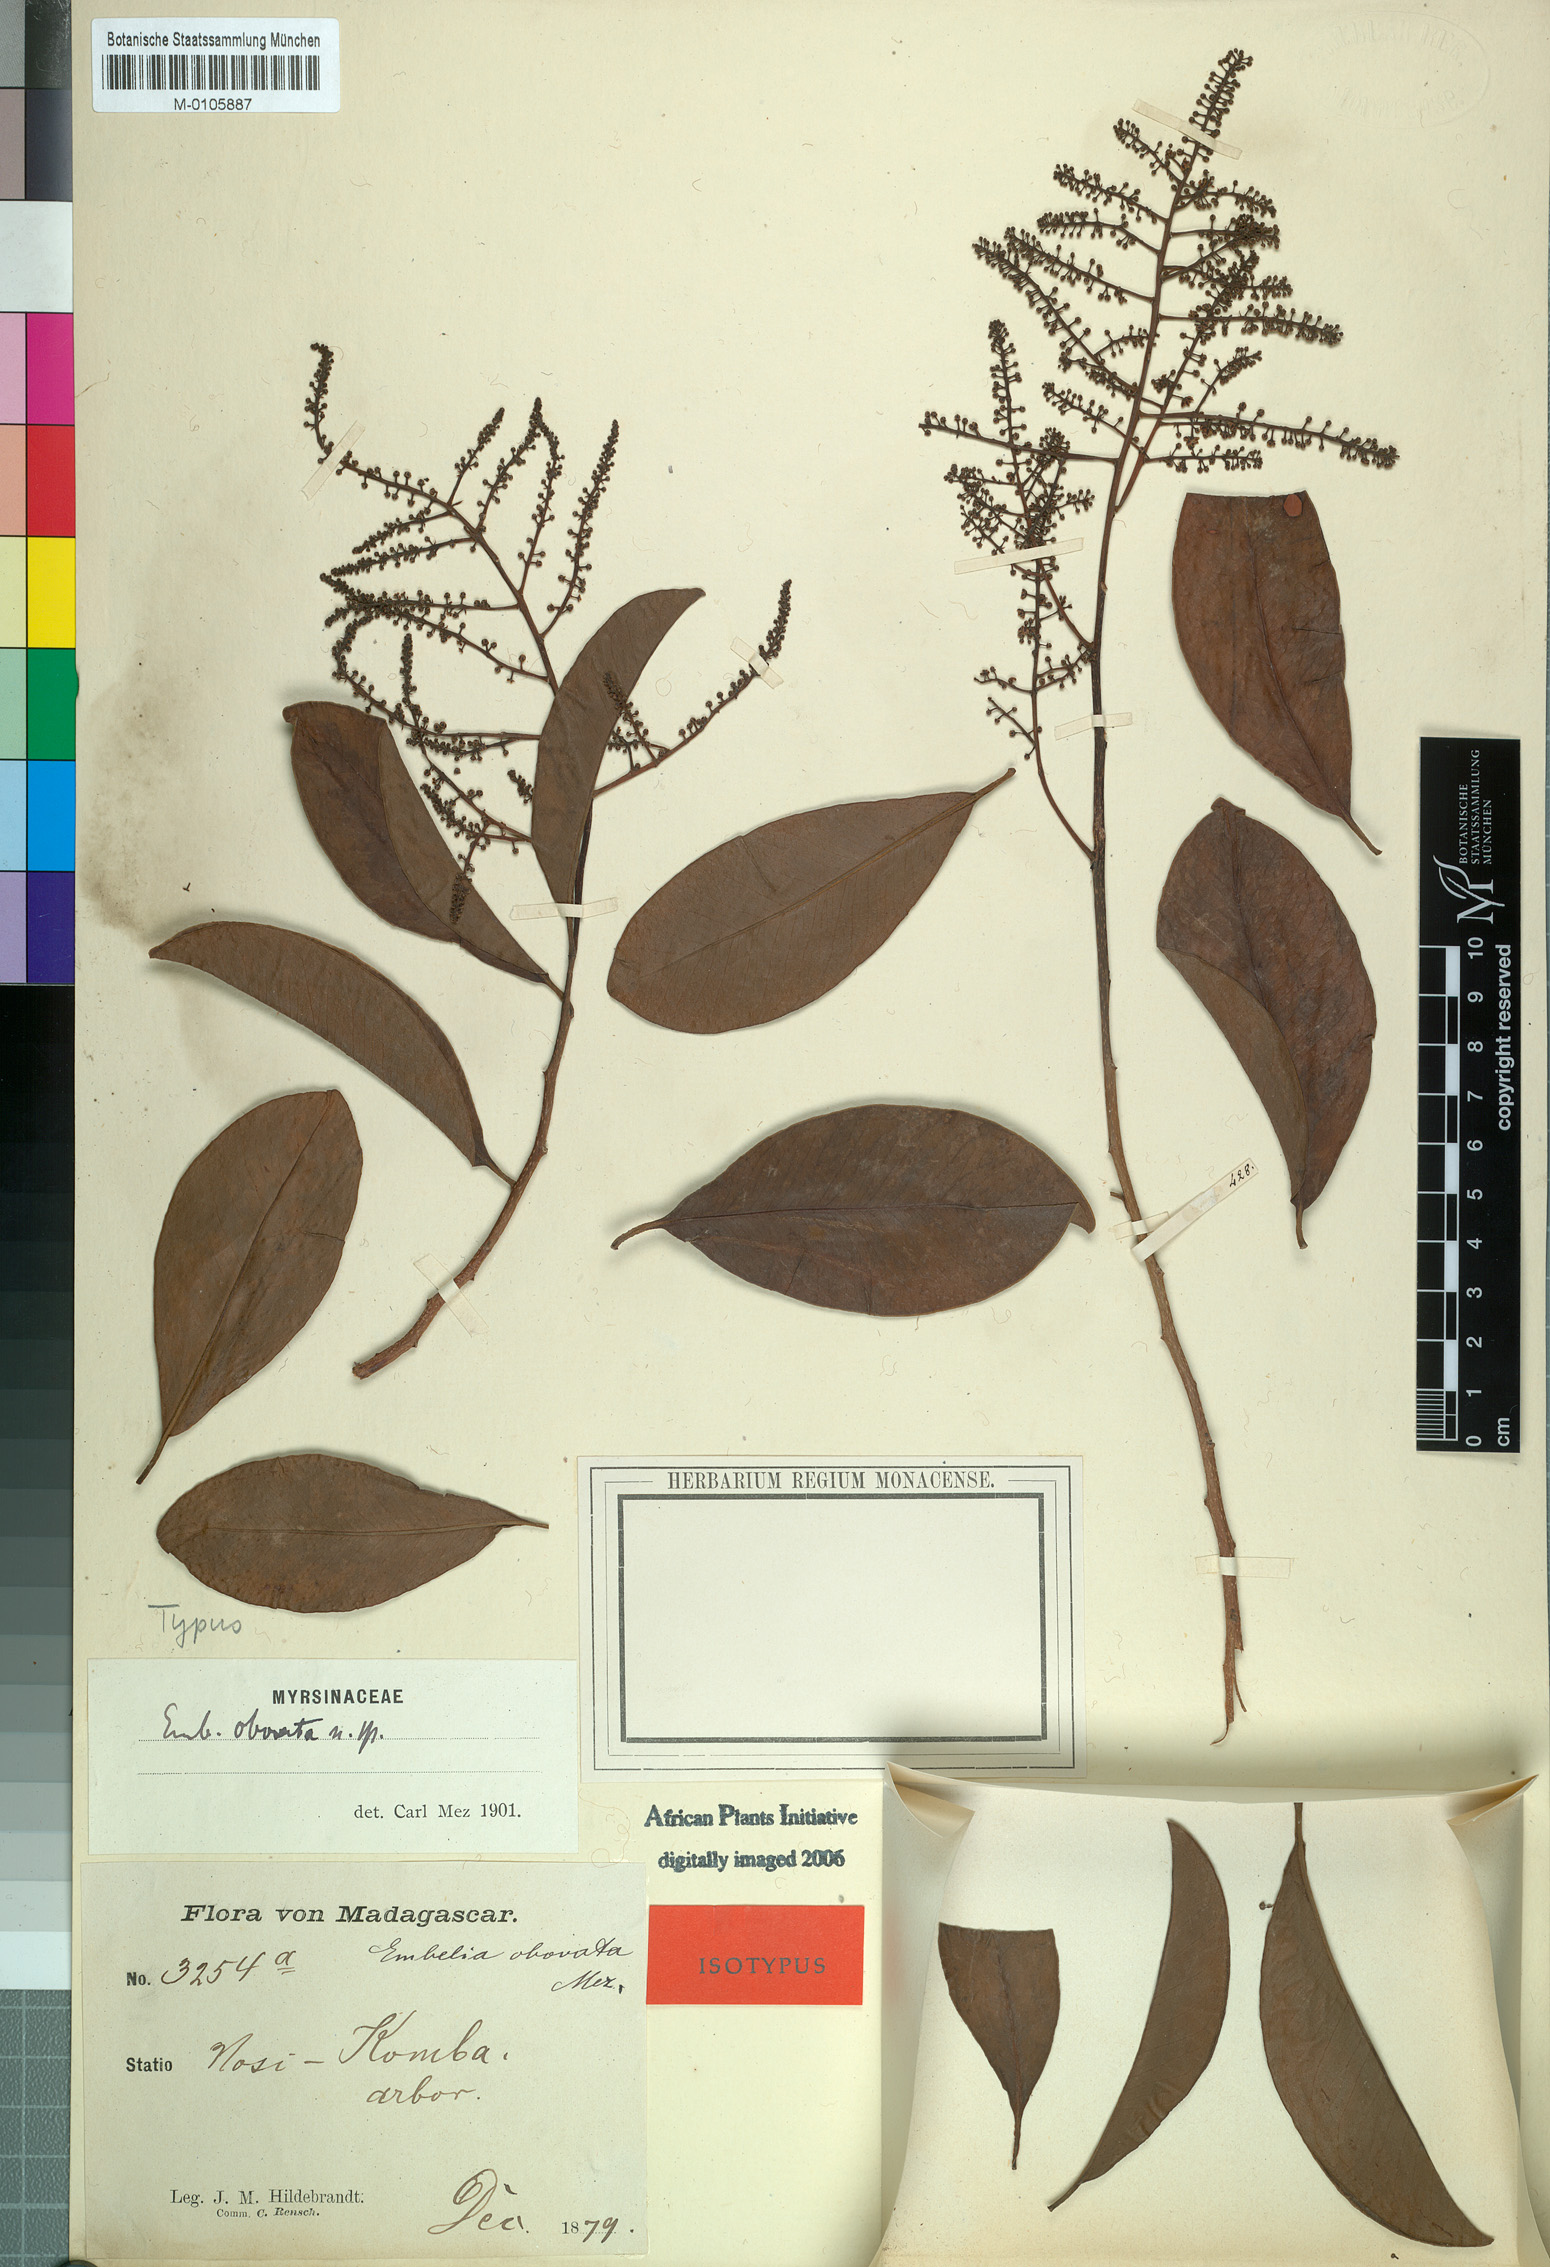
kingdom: Plantae
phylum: Tracheophyta
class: Magnoliopsida
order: Ericales
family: Primulaceae
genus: Embelia
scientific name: Embelia boivinii
